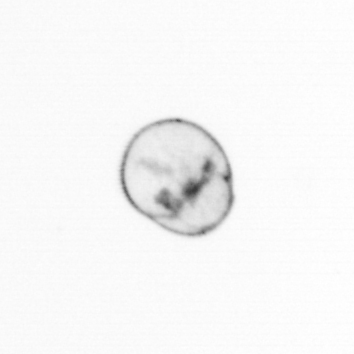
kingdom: Chromista
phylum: Myzozoa
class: Dinophyceae
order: Noctilucales
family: Noctilucaceae
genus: Noctiluca
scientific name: Noctiluca scintillans
